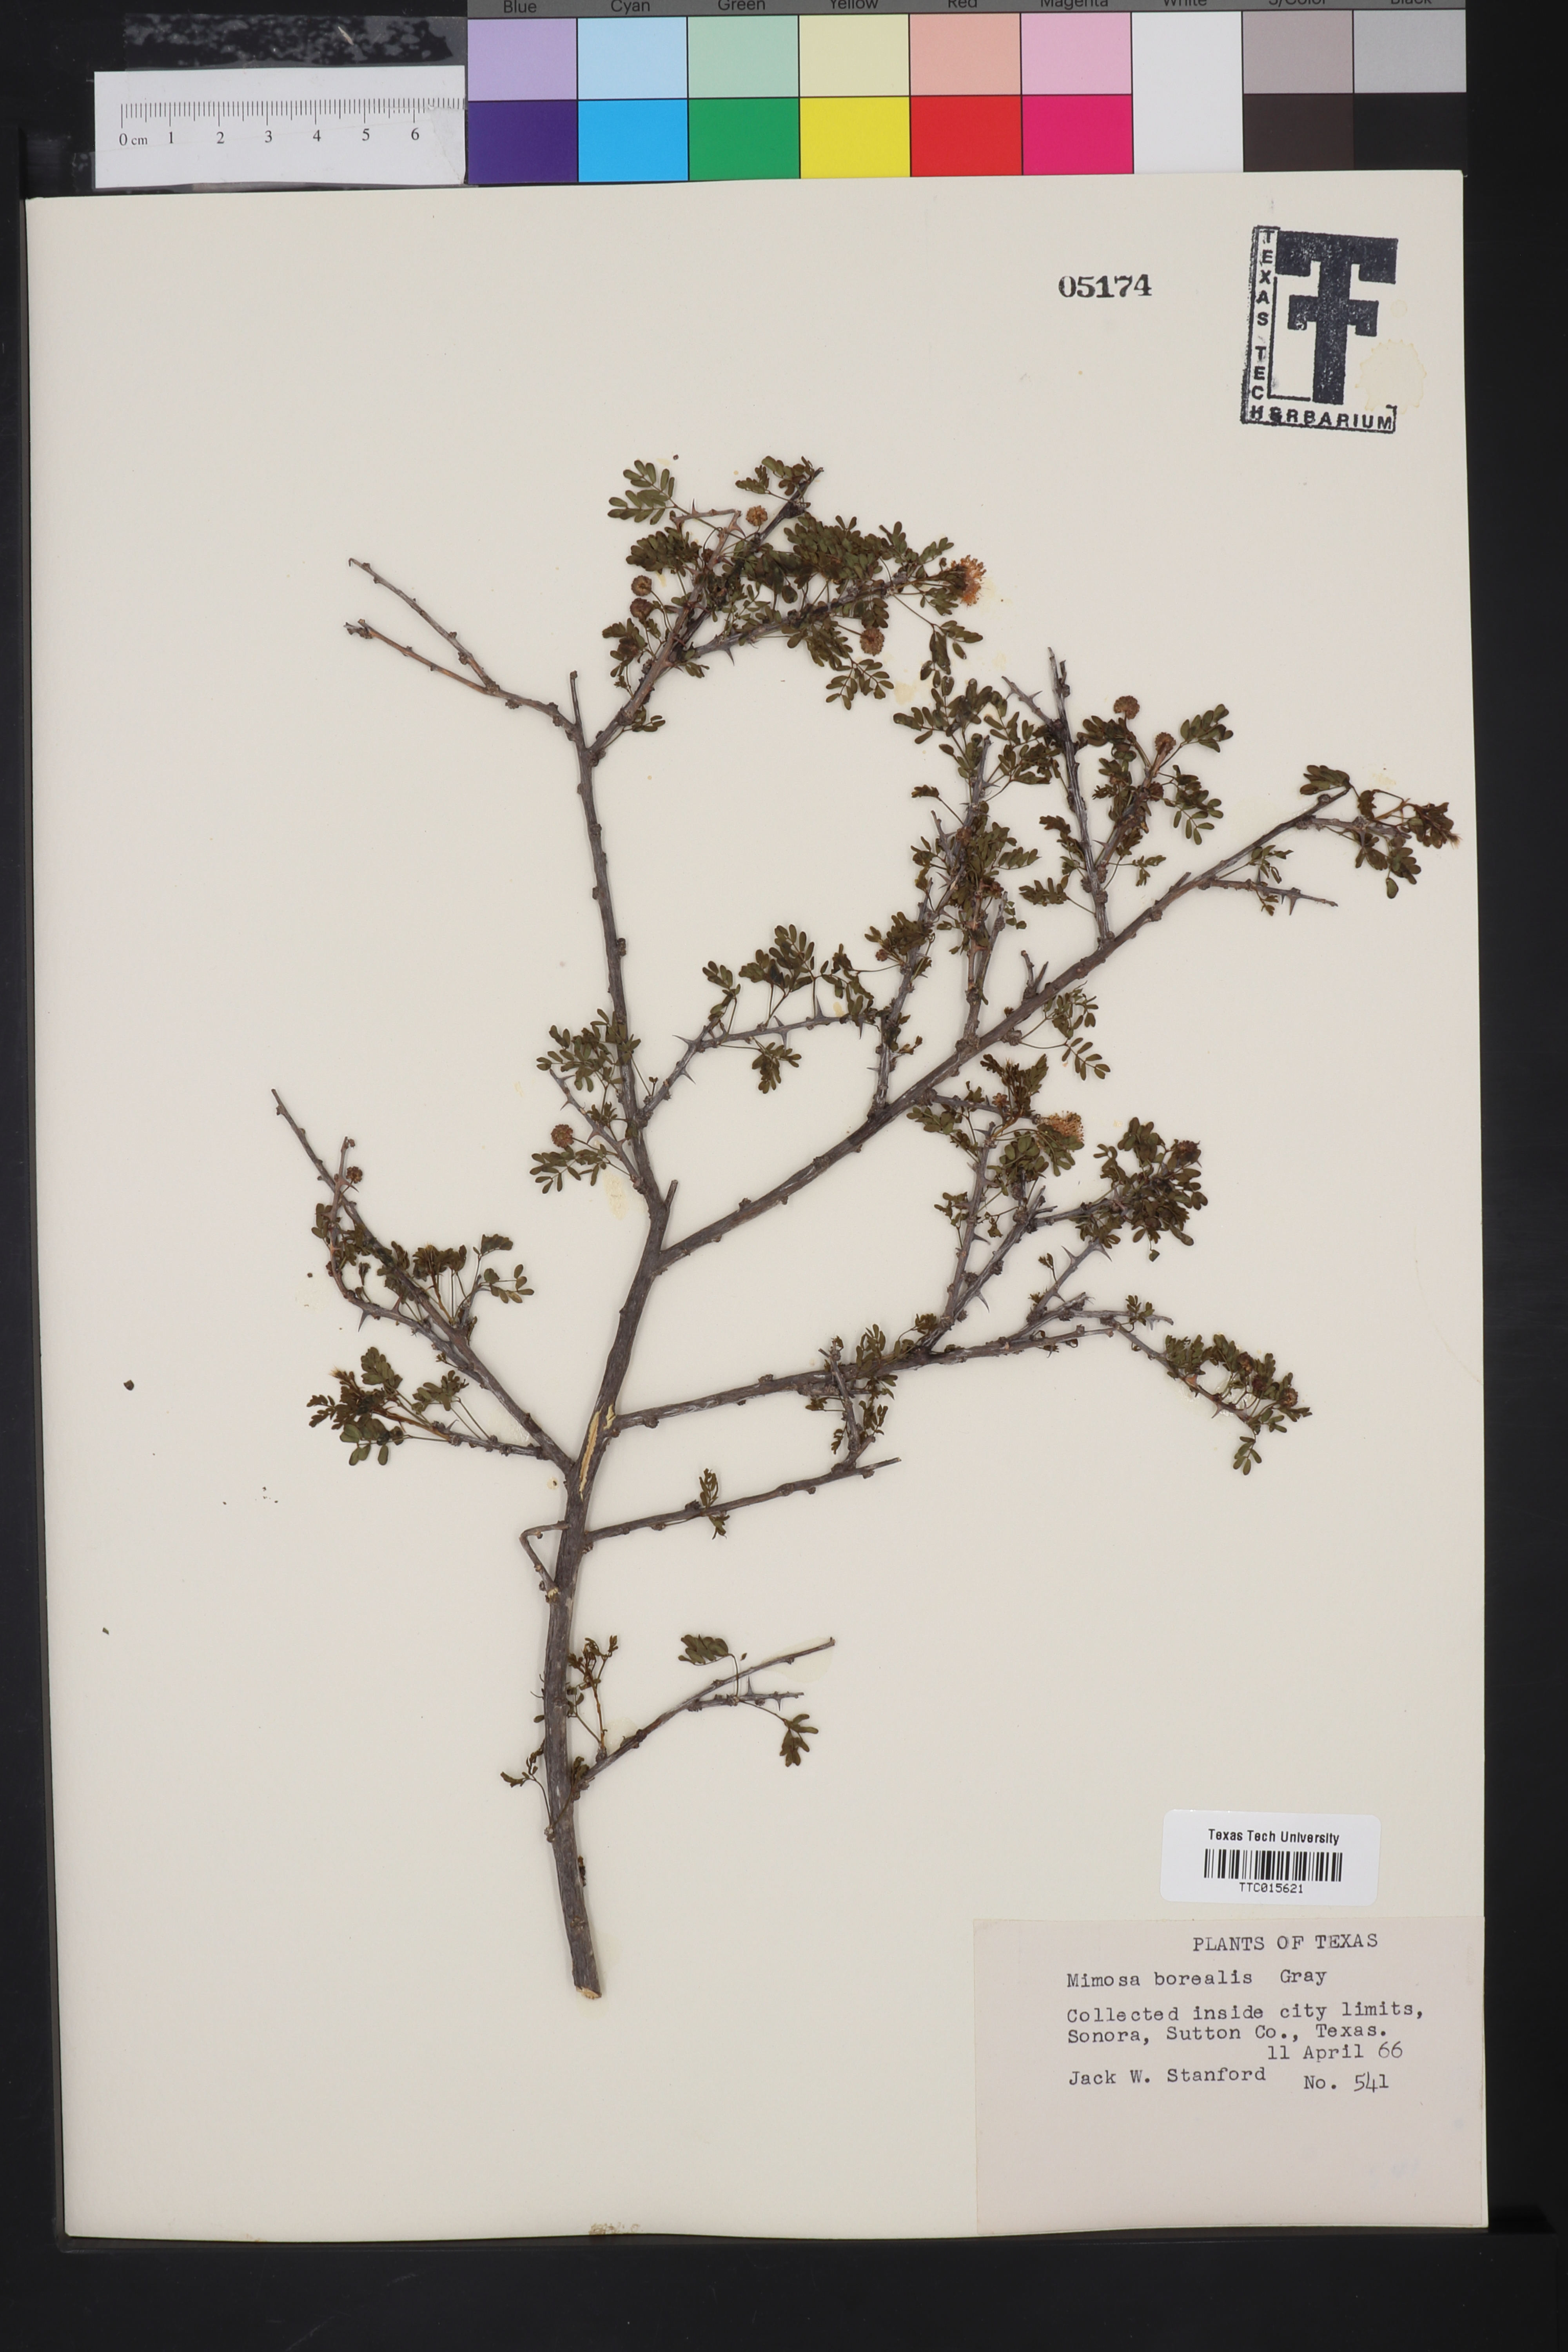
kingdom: Plantae
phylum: Tracheophyta
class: Magnoliopsida
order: Fabales
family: Fabaceae
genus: Mimosa
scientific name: Mimosa borealis
